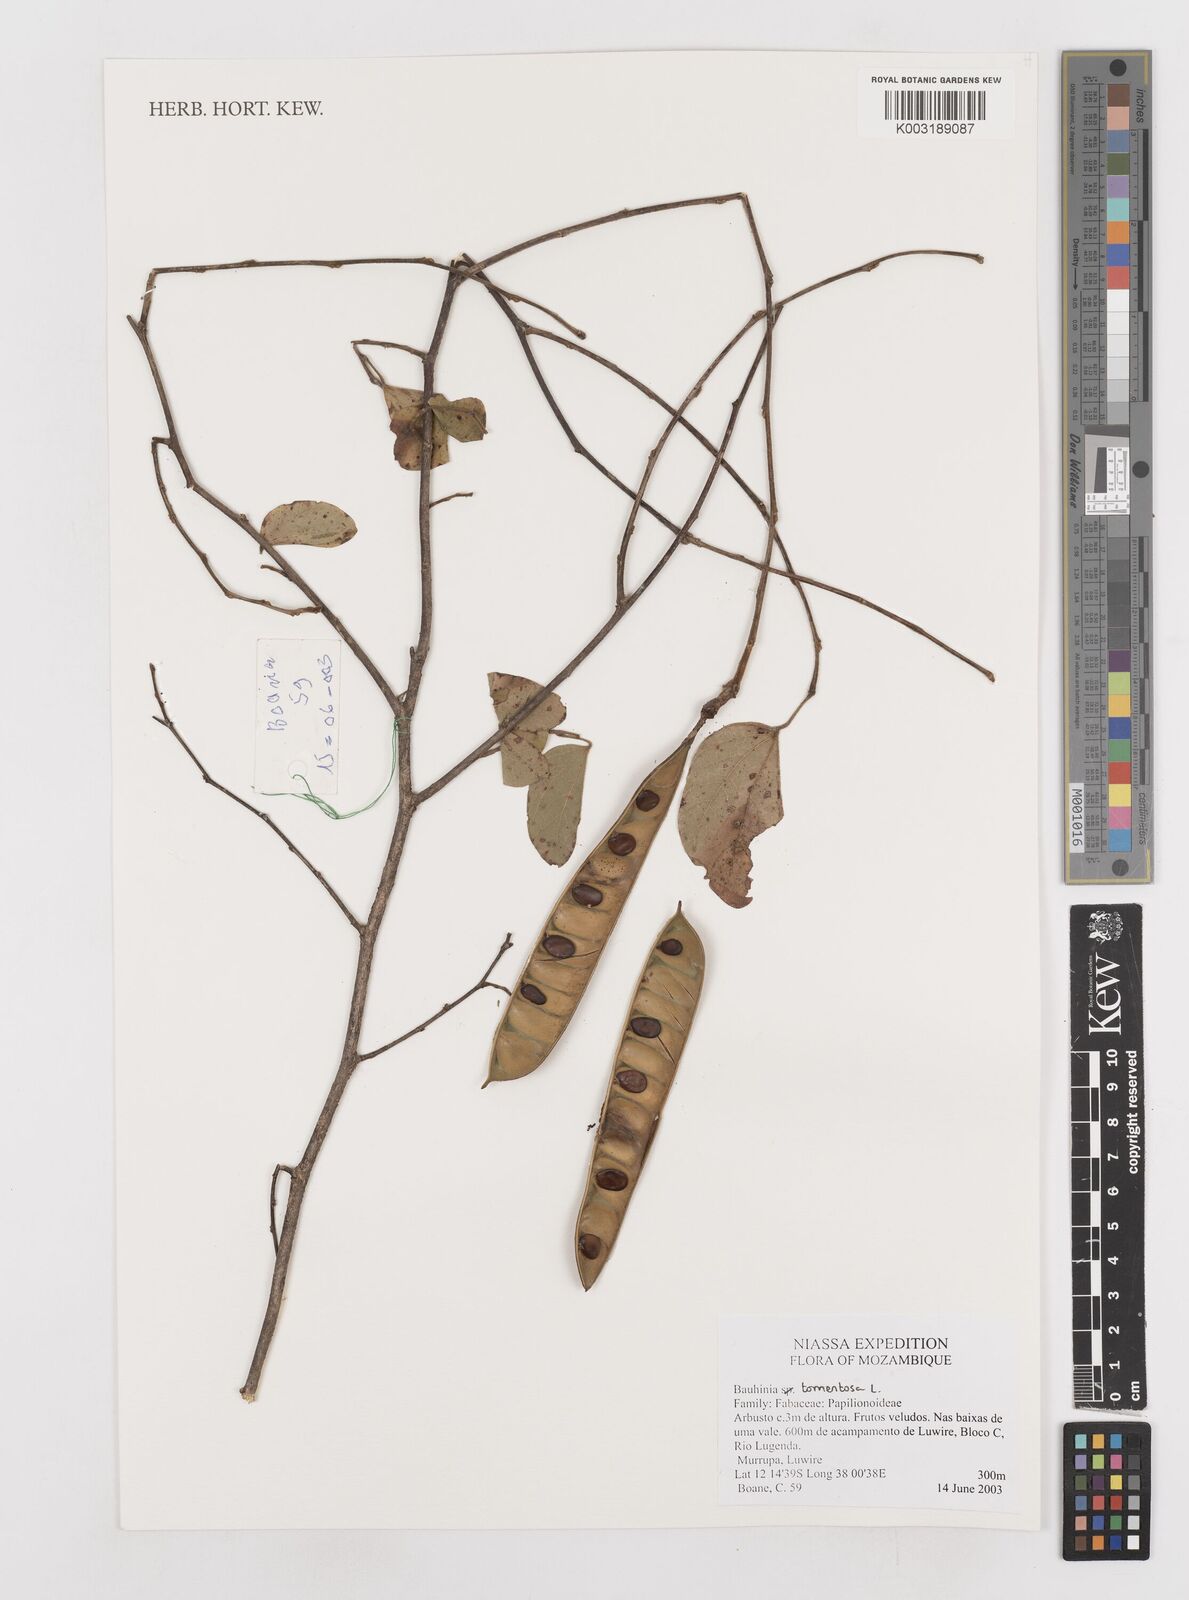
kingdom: Plantae
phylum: Tracheophyta
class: Magnoliopsida
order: Fabales
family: Fabaceae
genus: Bauhinia
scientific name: Bauhinia tomentosa
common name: Bell bauhinia
